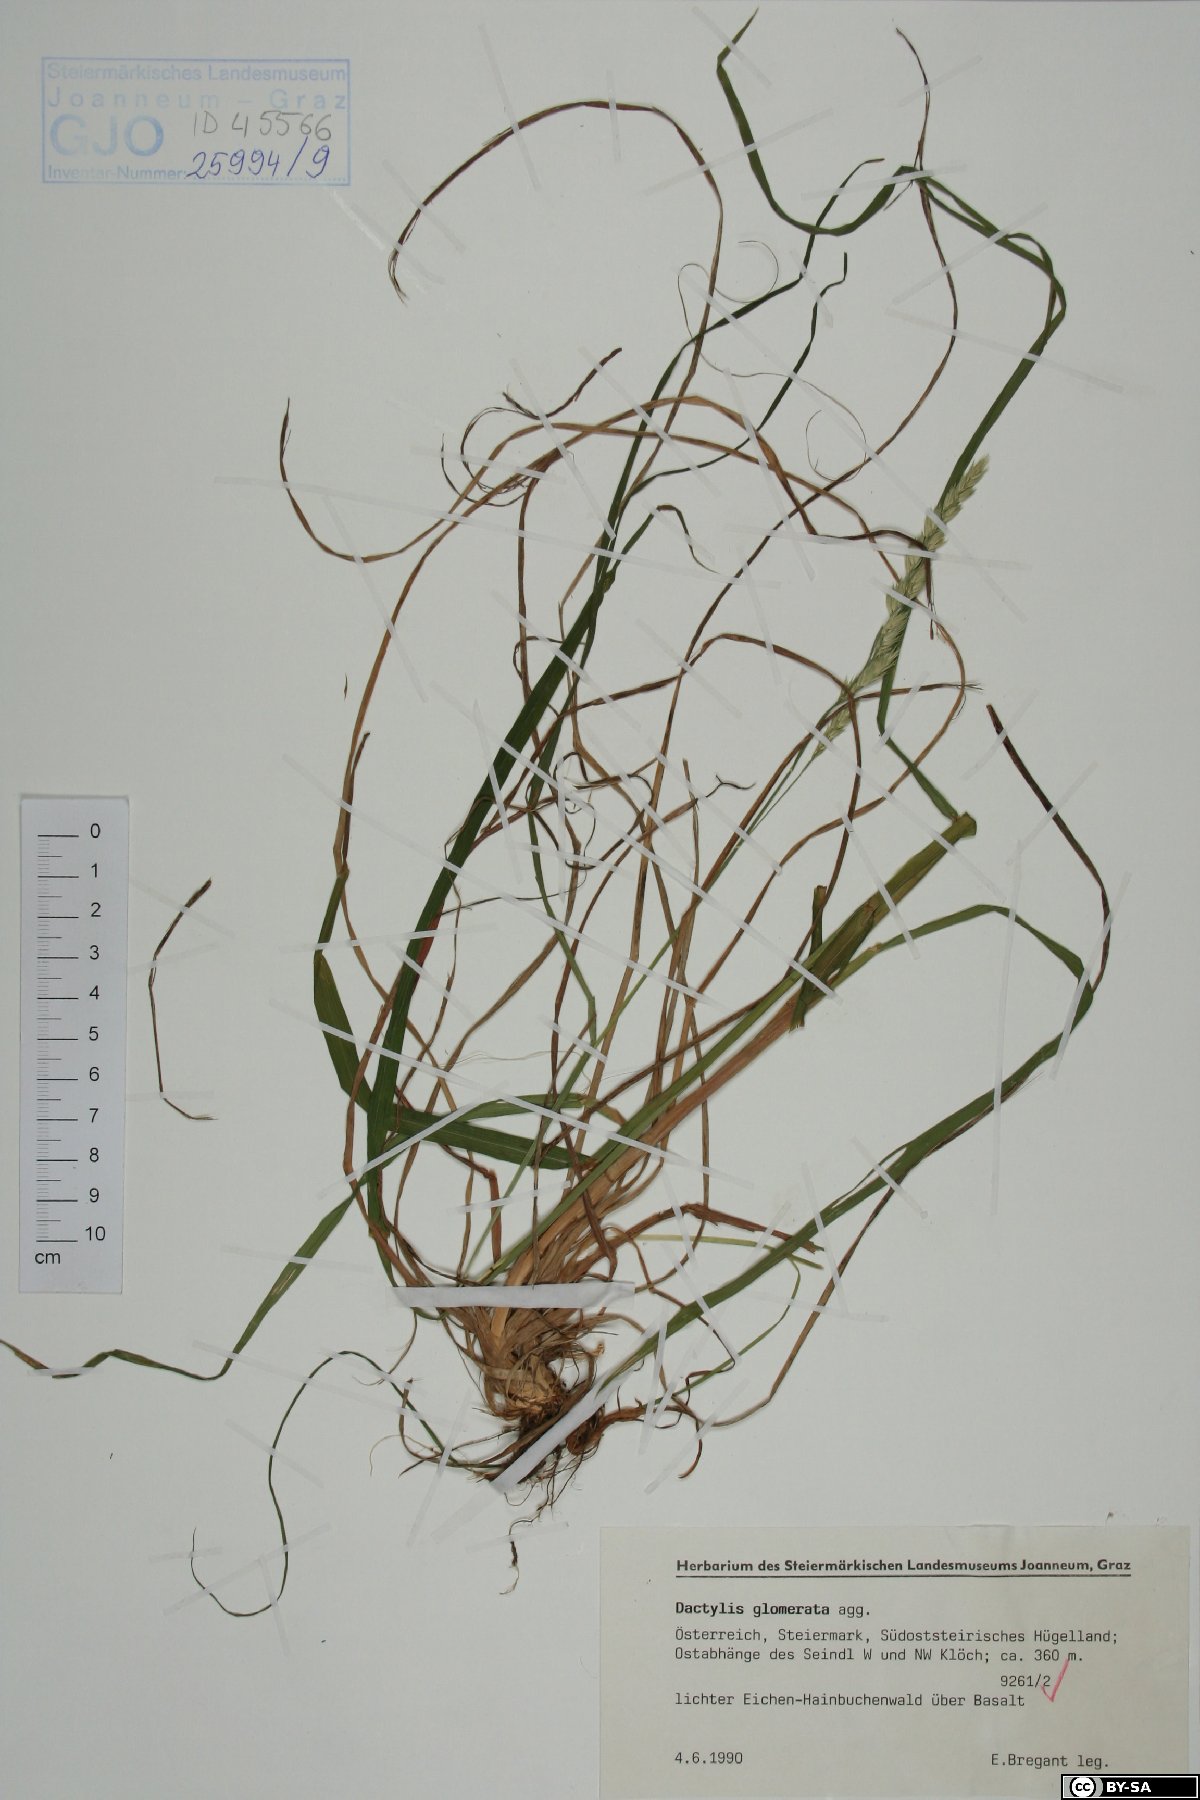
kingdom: Plantae
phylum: Tracheophyta
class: Liliopsida
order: Poales
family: Poaceae
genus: Dactylis
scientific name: Dactylis glomerata
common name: Orchardgrass
